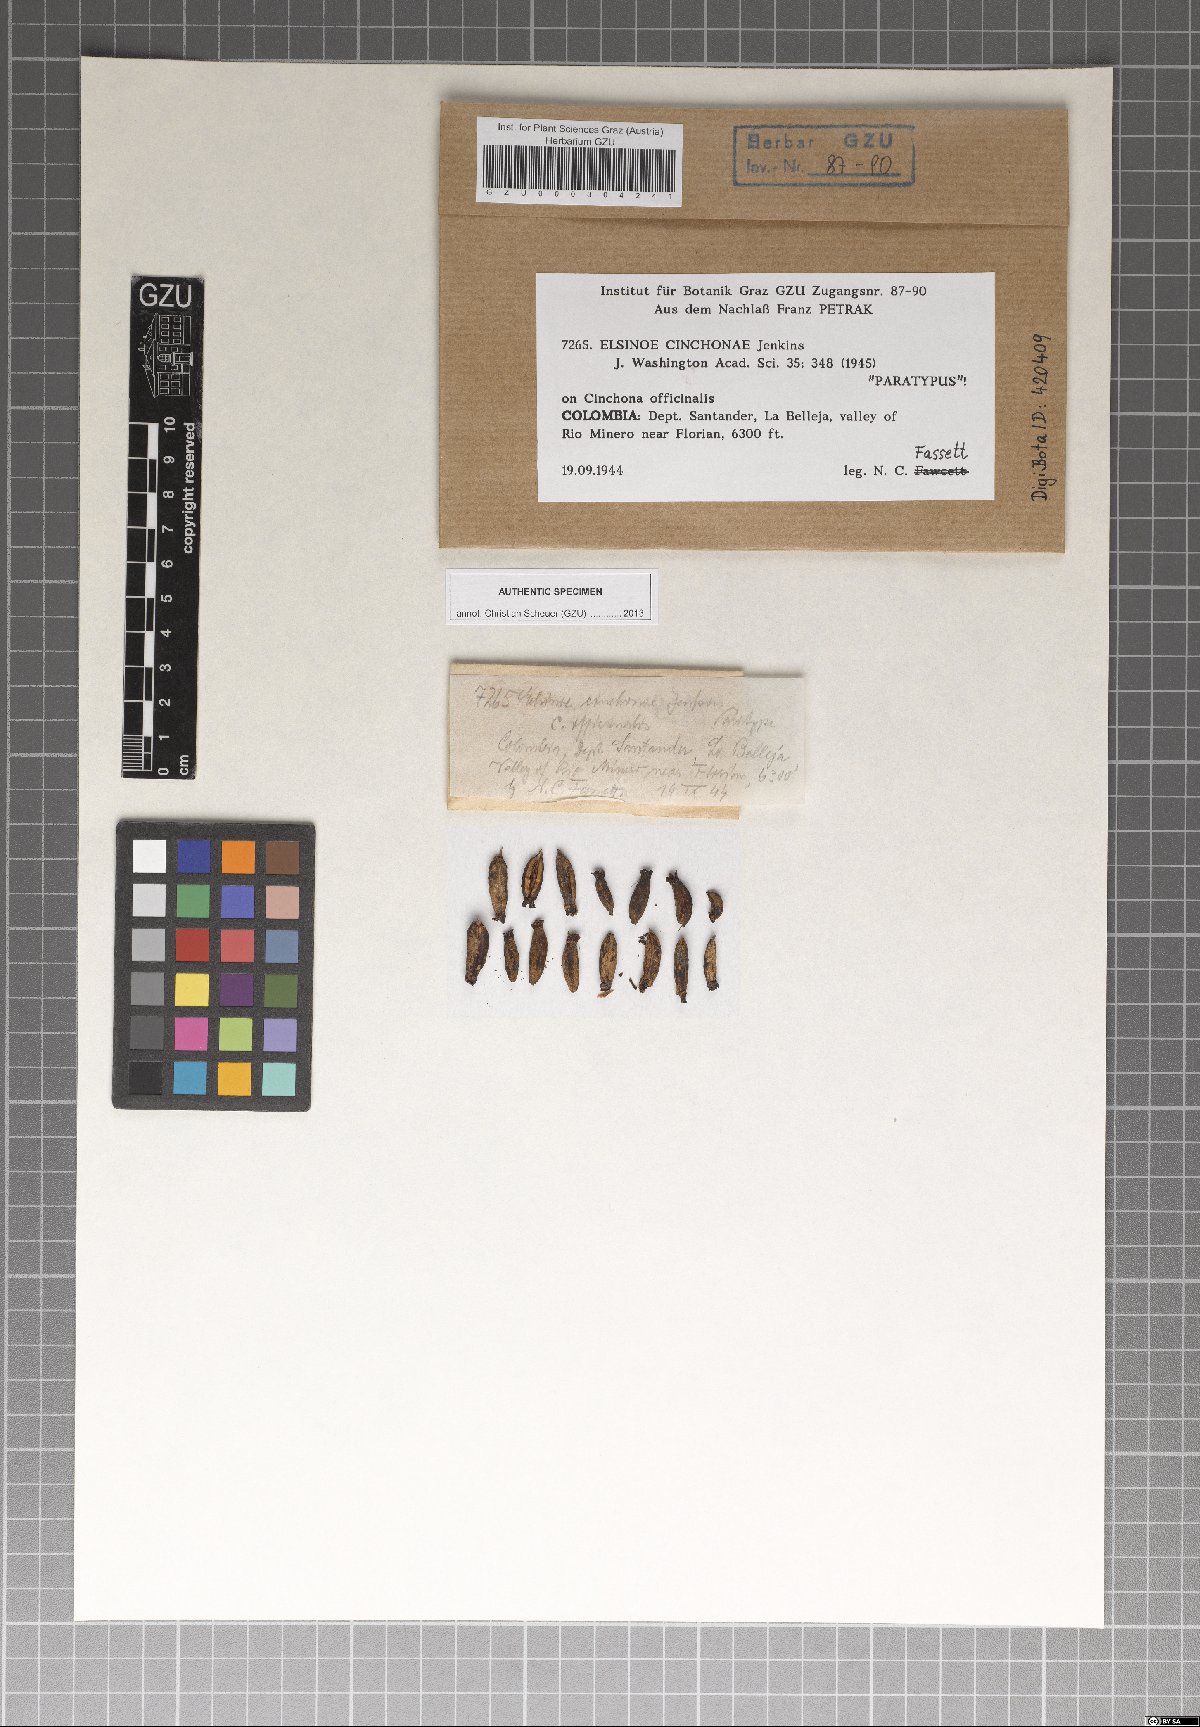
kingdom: Fungi
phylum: Ascomycota
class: Dothideomycetes
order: Myriangiales
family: Elsinoaceae
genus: Elsinoe
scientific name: Elsinoe cinchonae
